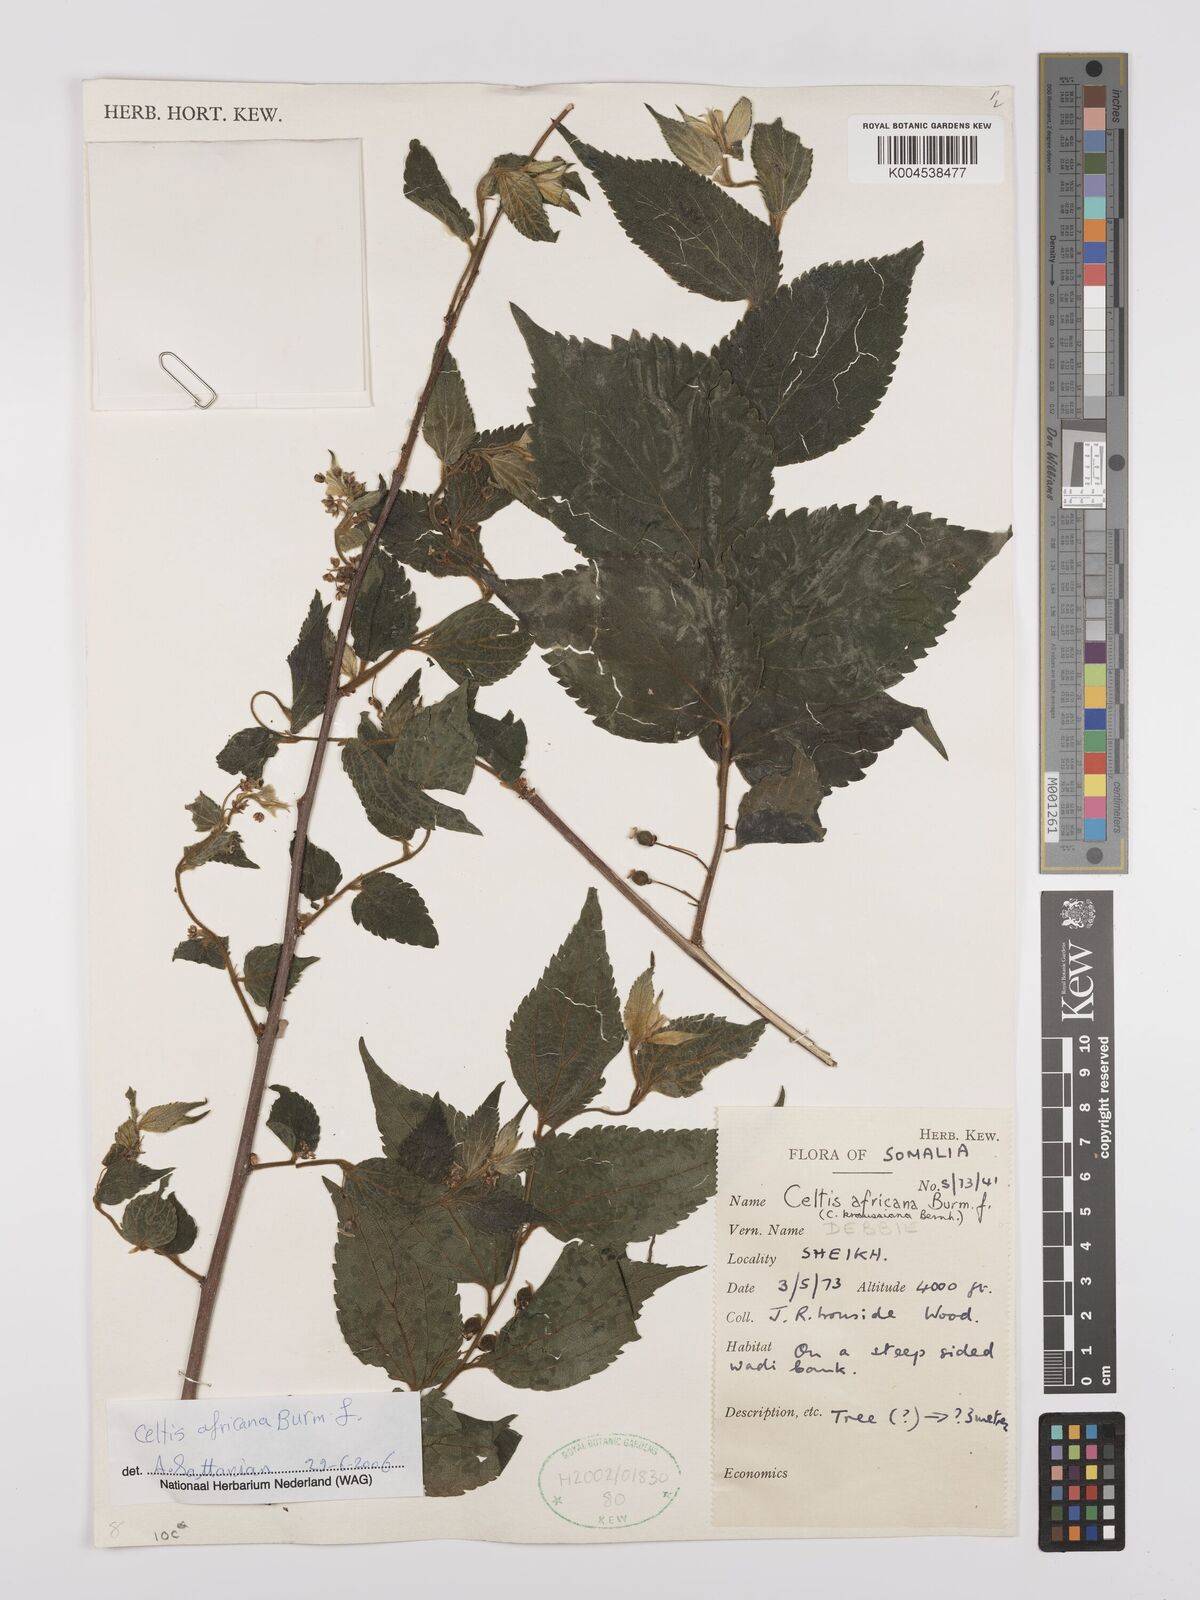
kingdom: Plantae
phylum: Tracheophyta
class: Magnoliopsida
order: Rosales
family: Cannabaceae
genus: Celtis
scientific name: Celtis africana
